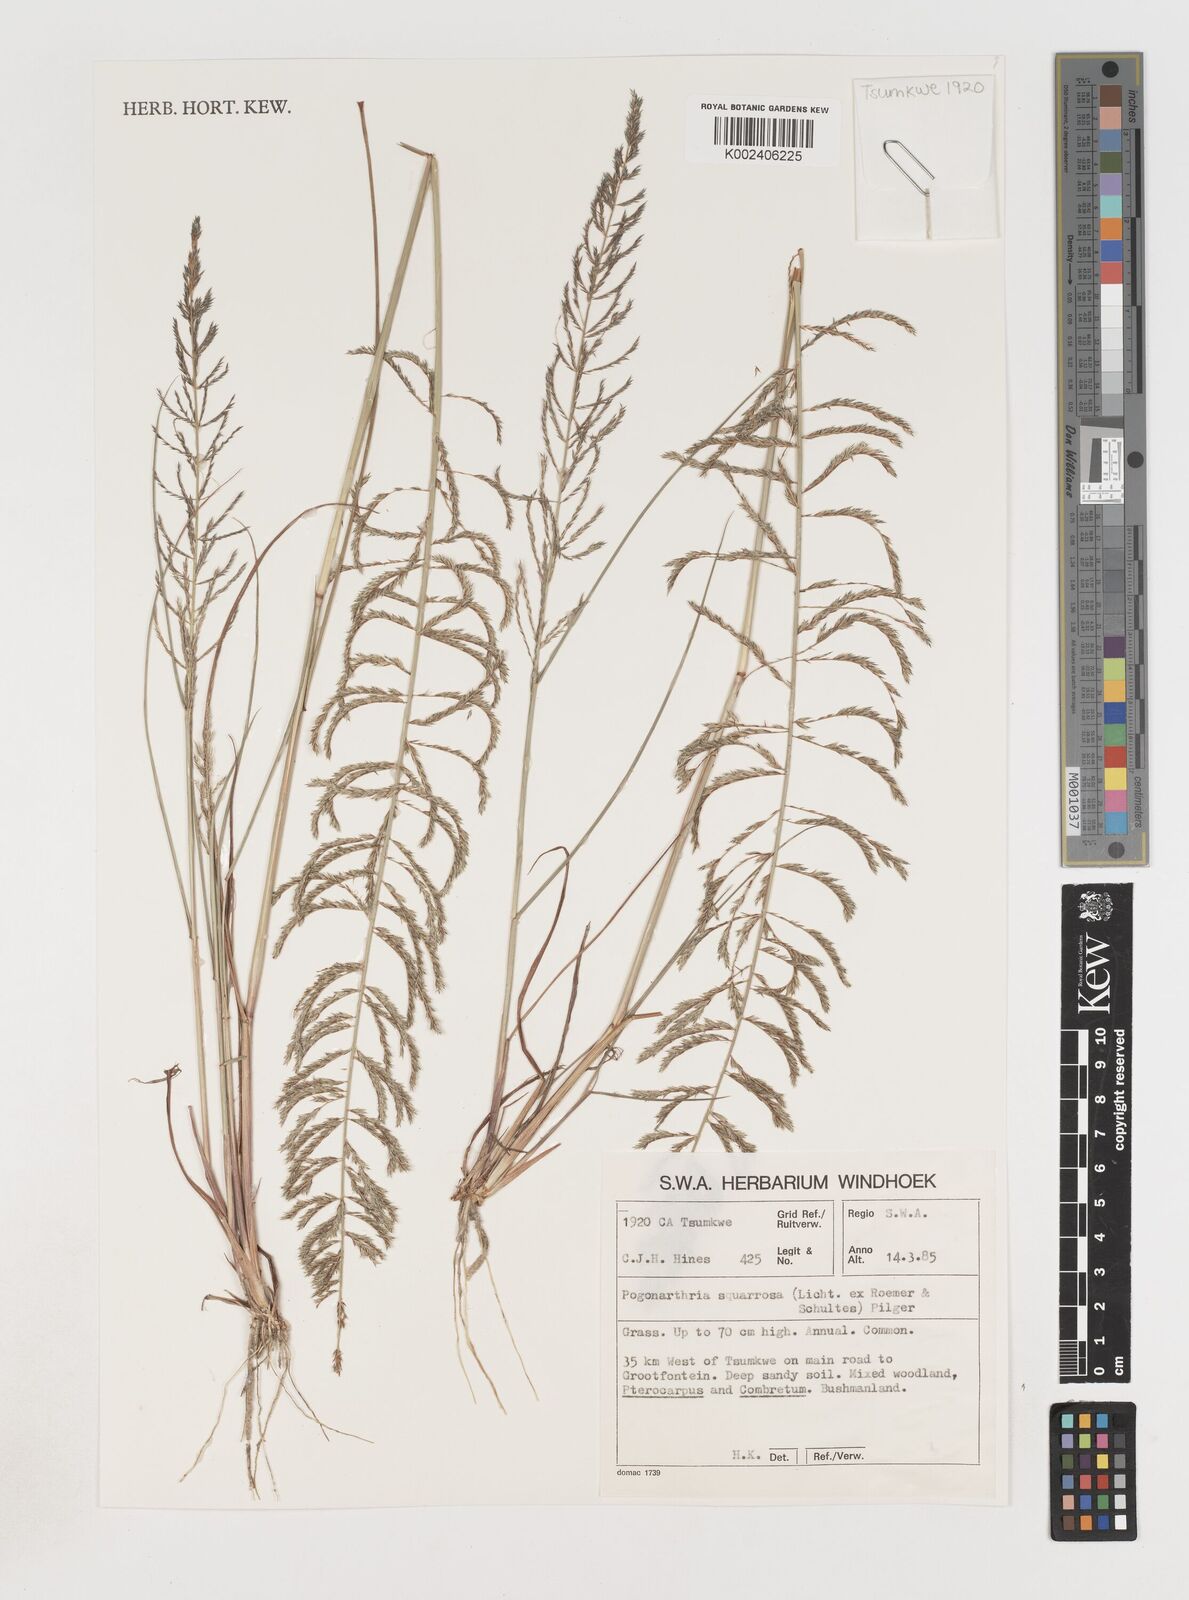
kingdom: Plantae
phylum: Tracheophyta
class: Liliopsida
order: Poales
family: Poaceae
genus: Pogonarthria
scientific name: Pogonarthria squarrosa
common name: Grass
